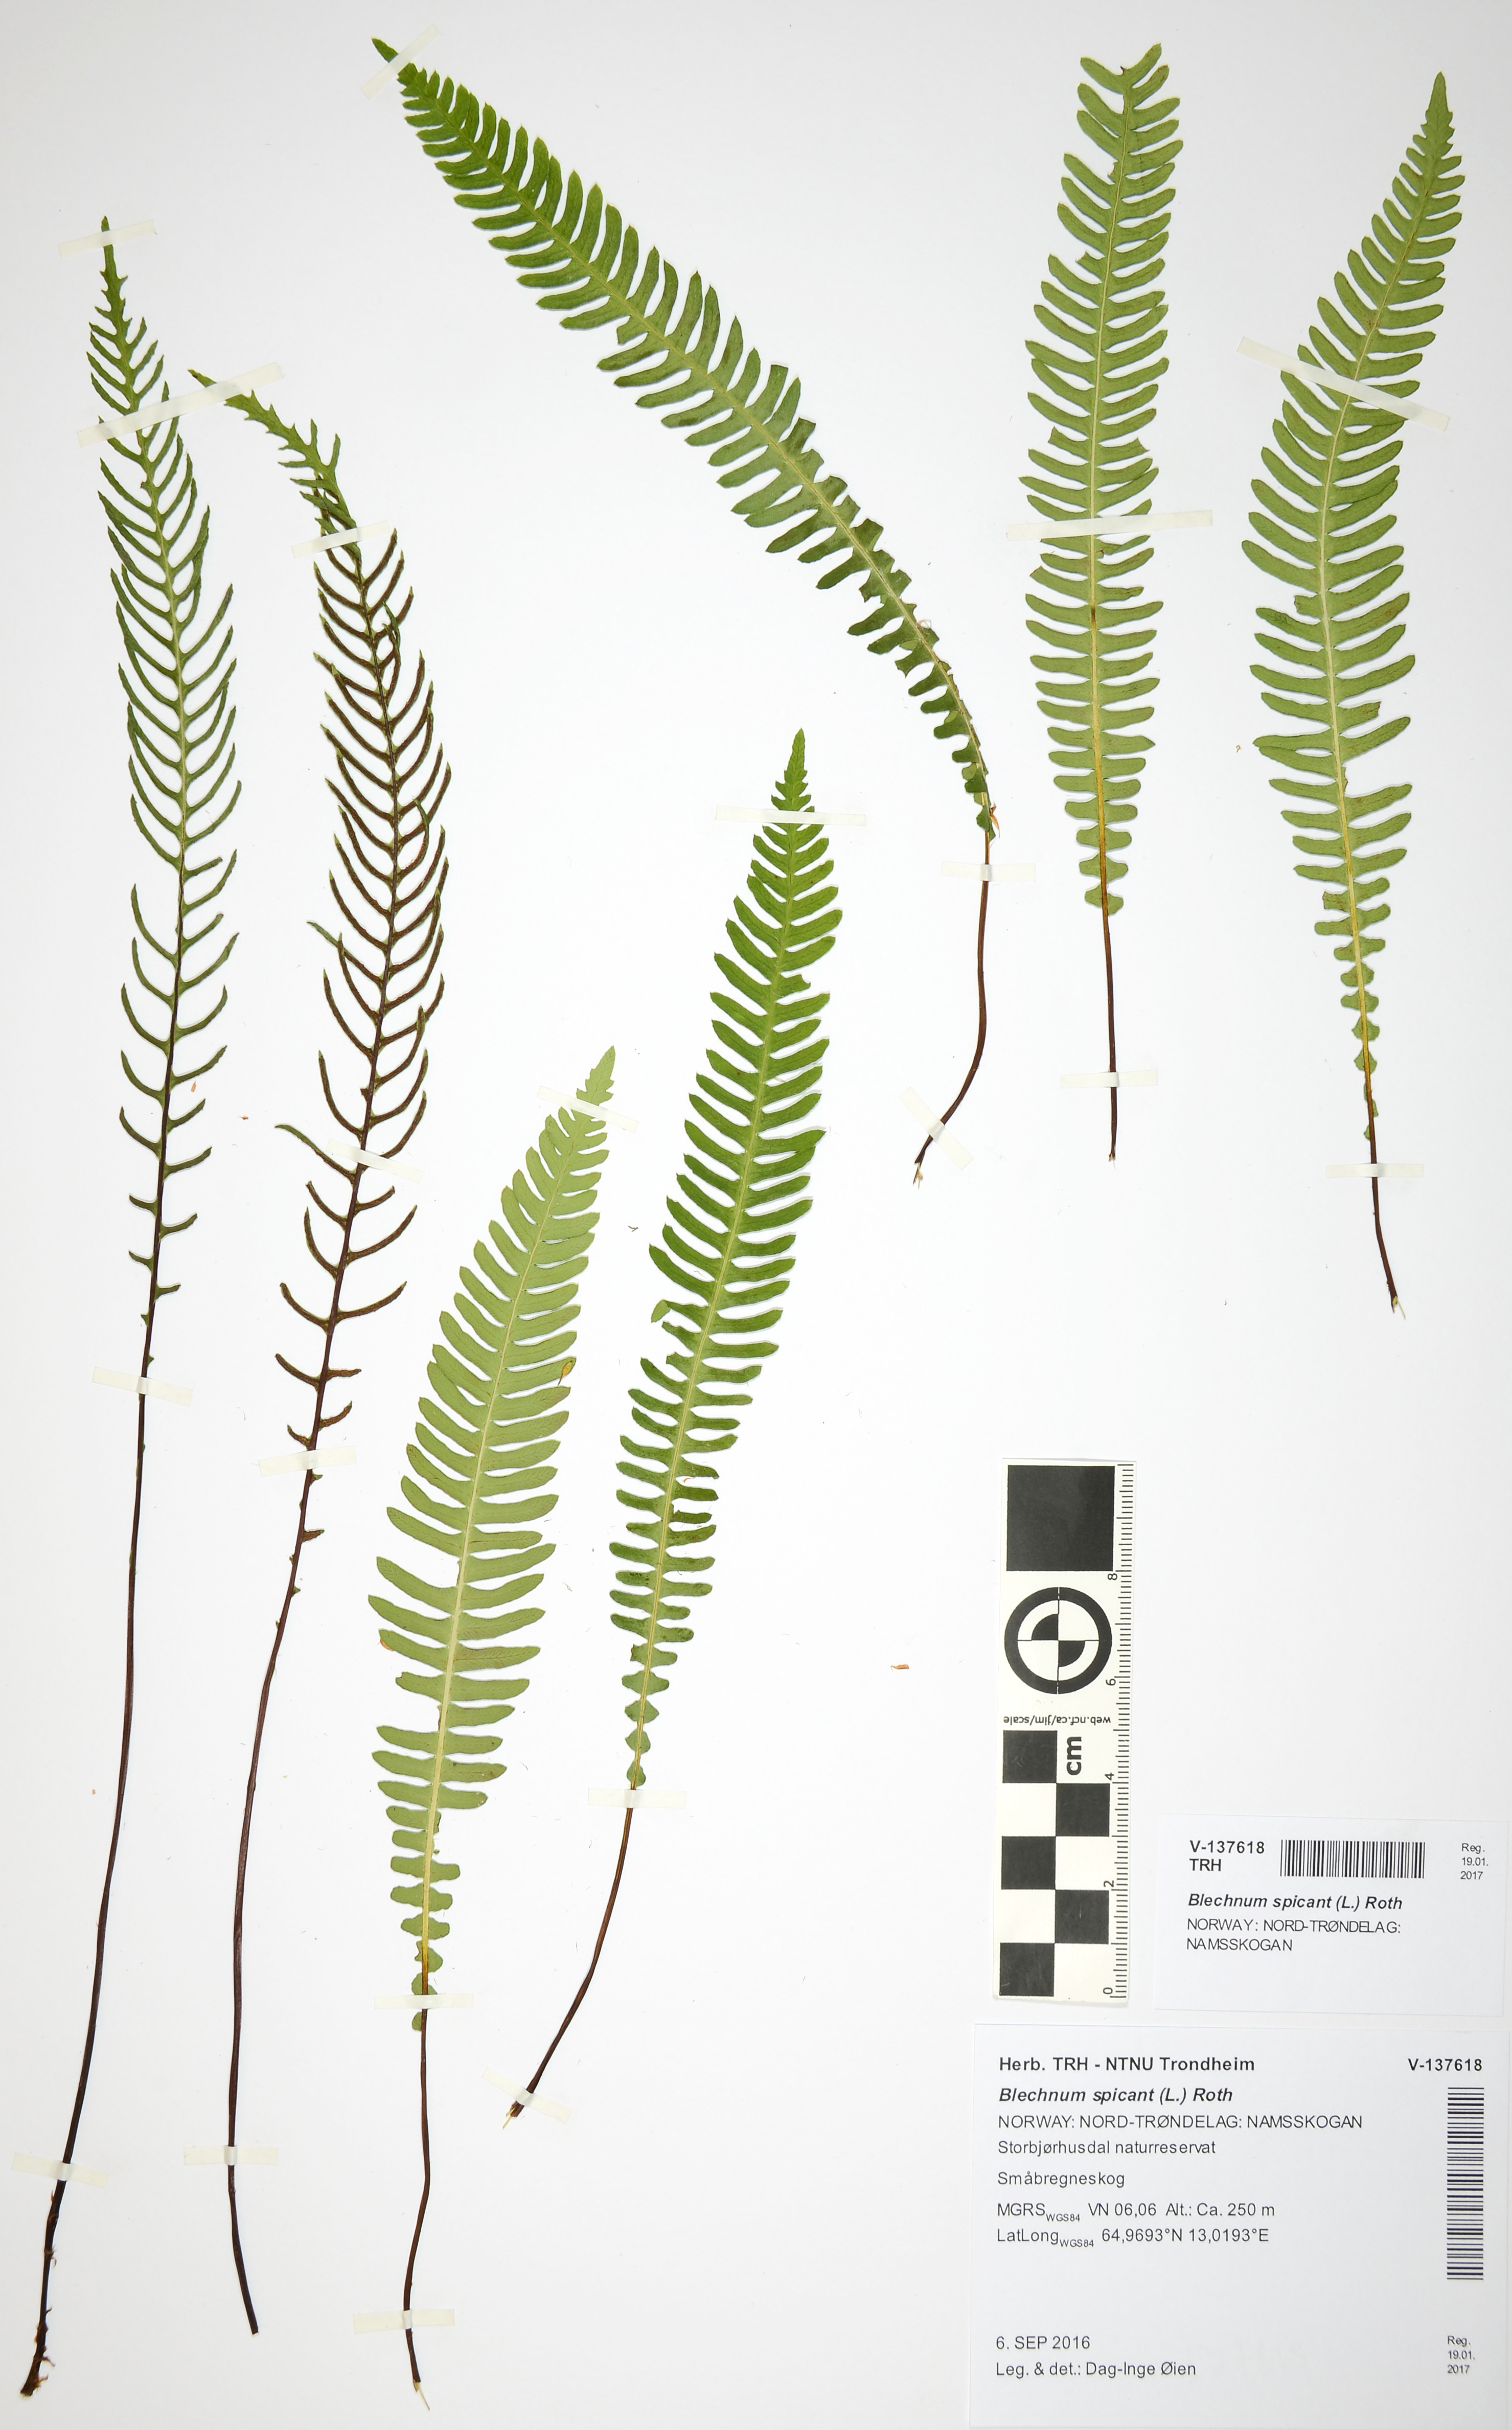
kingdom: Plantae
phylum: Tracheophyta
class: Polypodiopsida
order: Polypodiales
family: Blechnaceae
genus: Struthiopteris
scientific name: Struthiopteris spicant
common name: Deer fern
